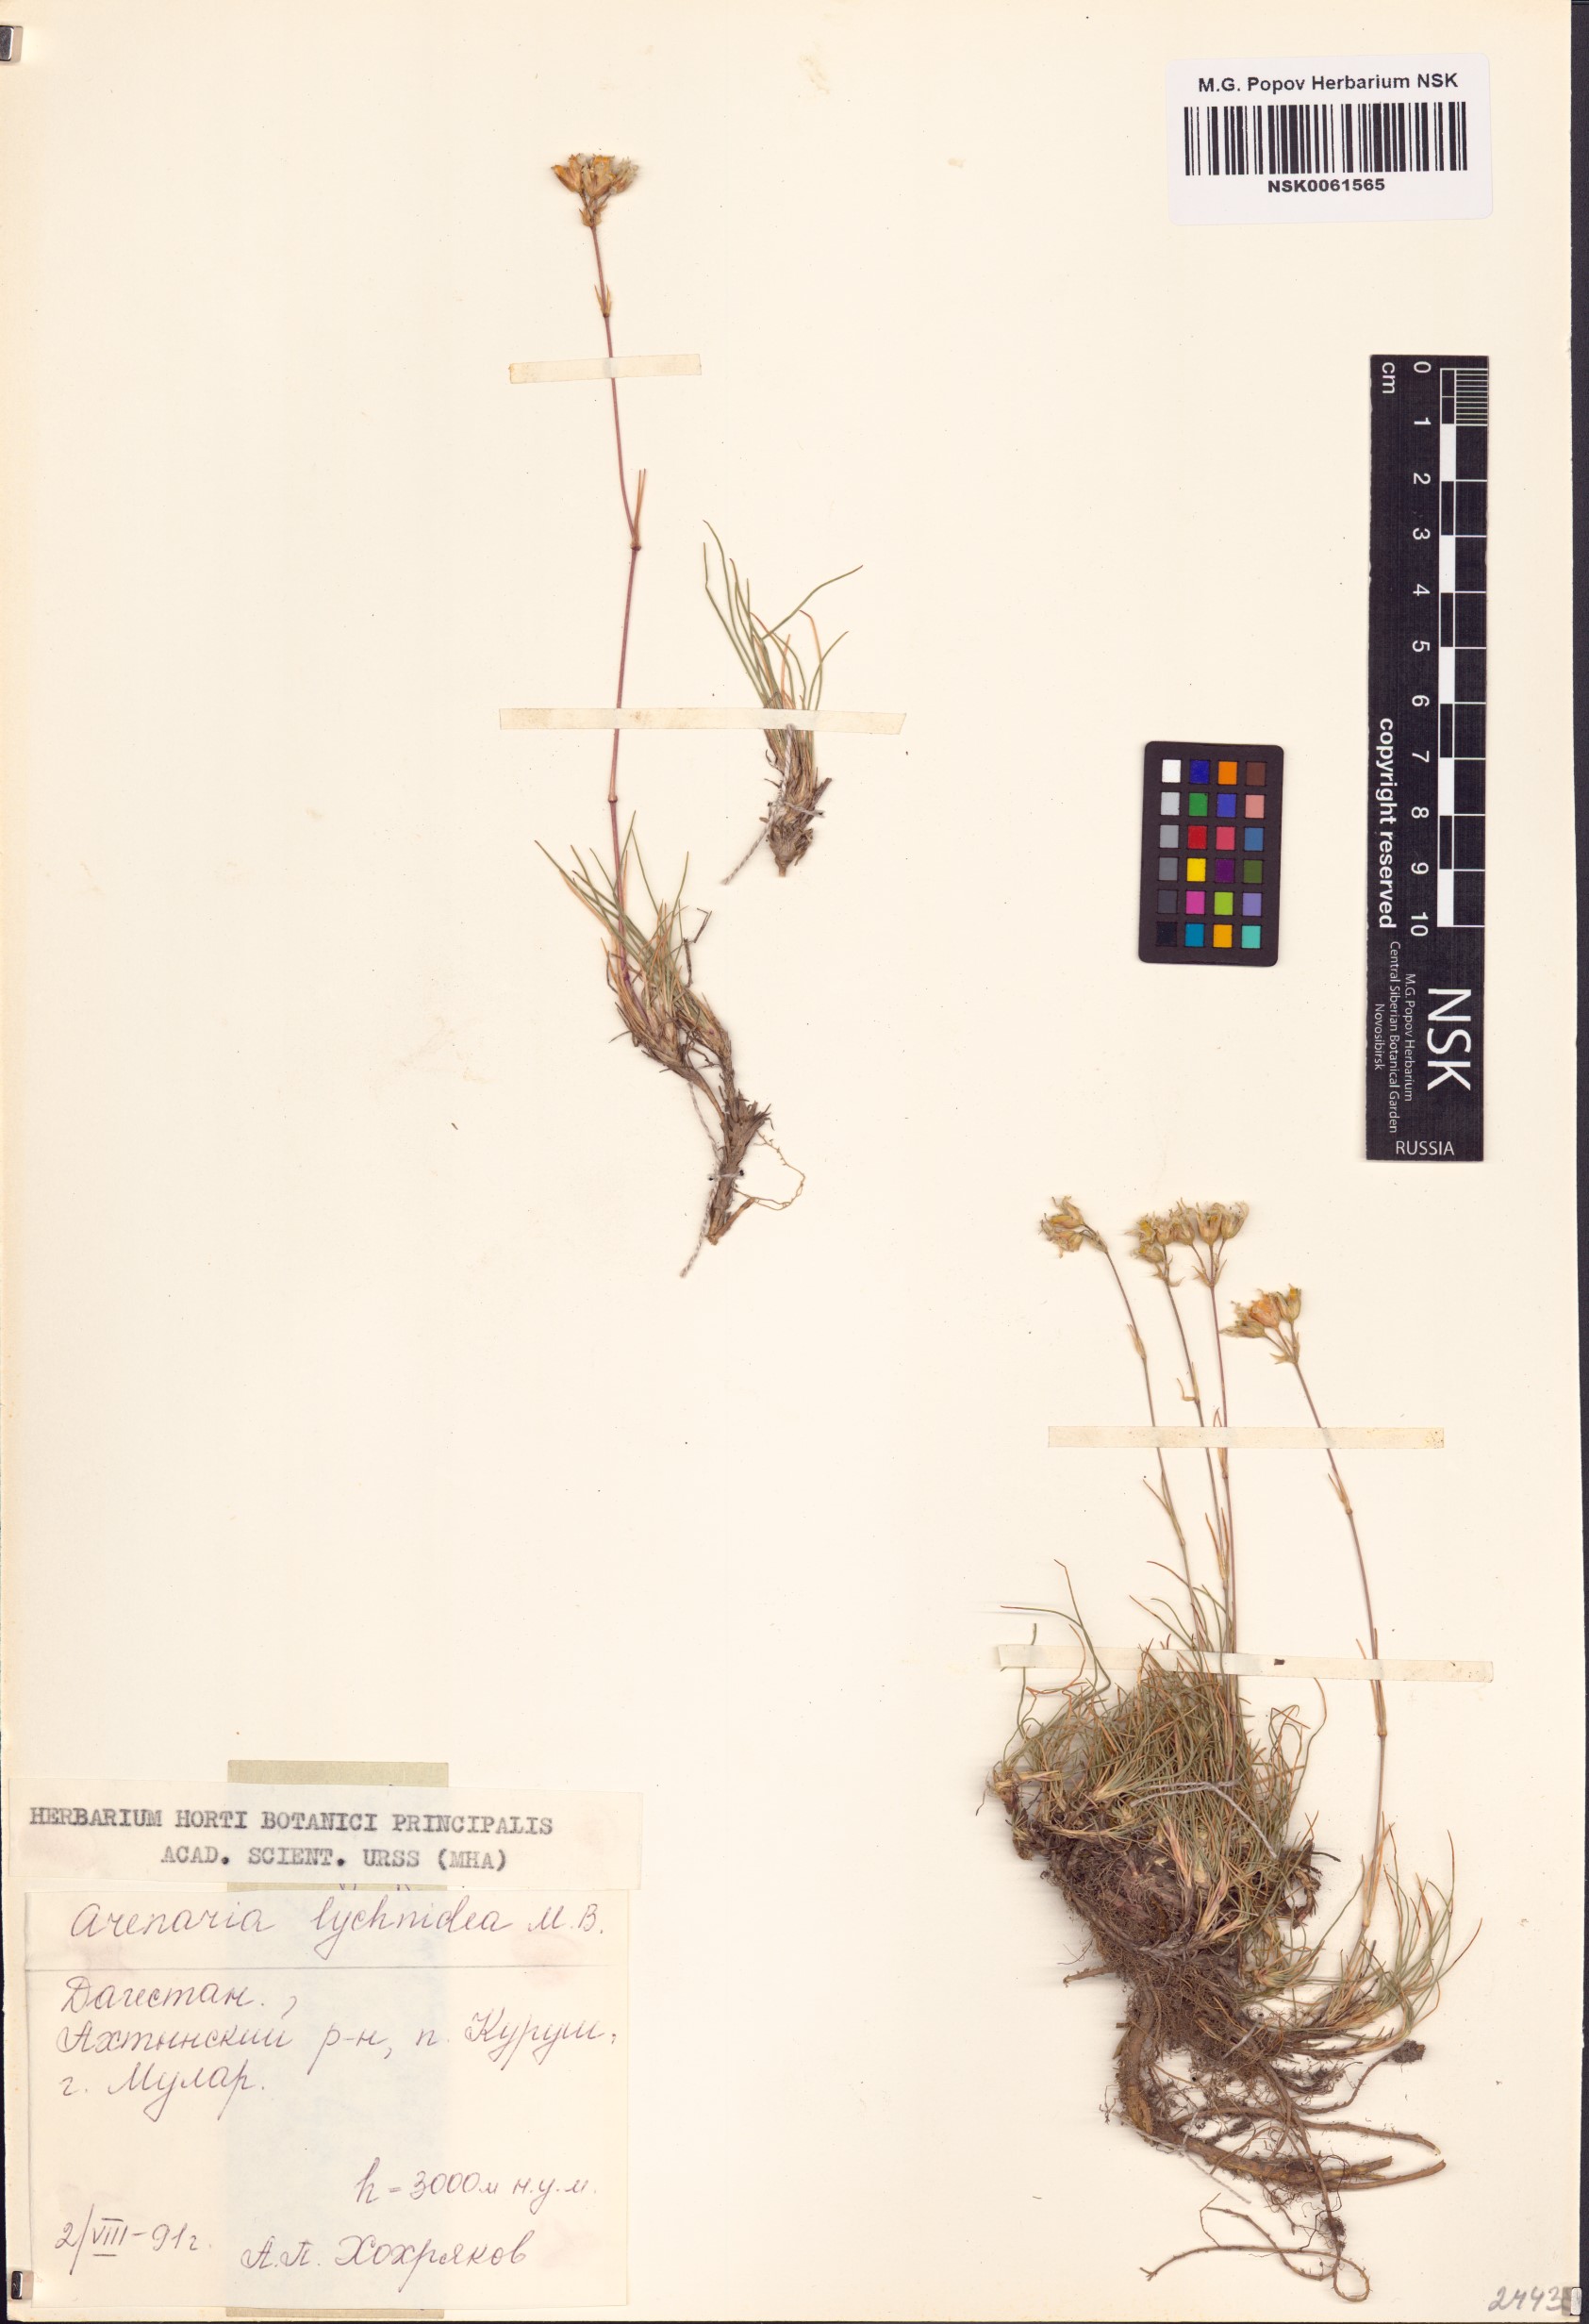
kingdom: Plantae
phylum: Tracheophyta
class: Magnoliopsida
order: Caryophyllales
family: Caryophyllaceae
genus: Eremogone
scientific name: Eremogone lychnidea
